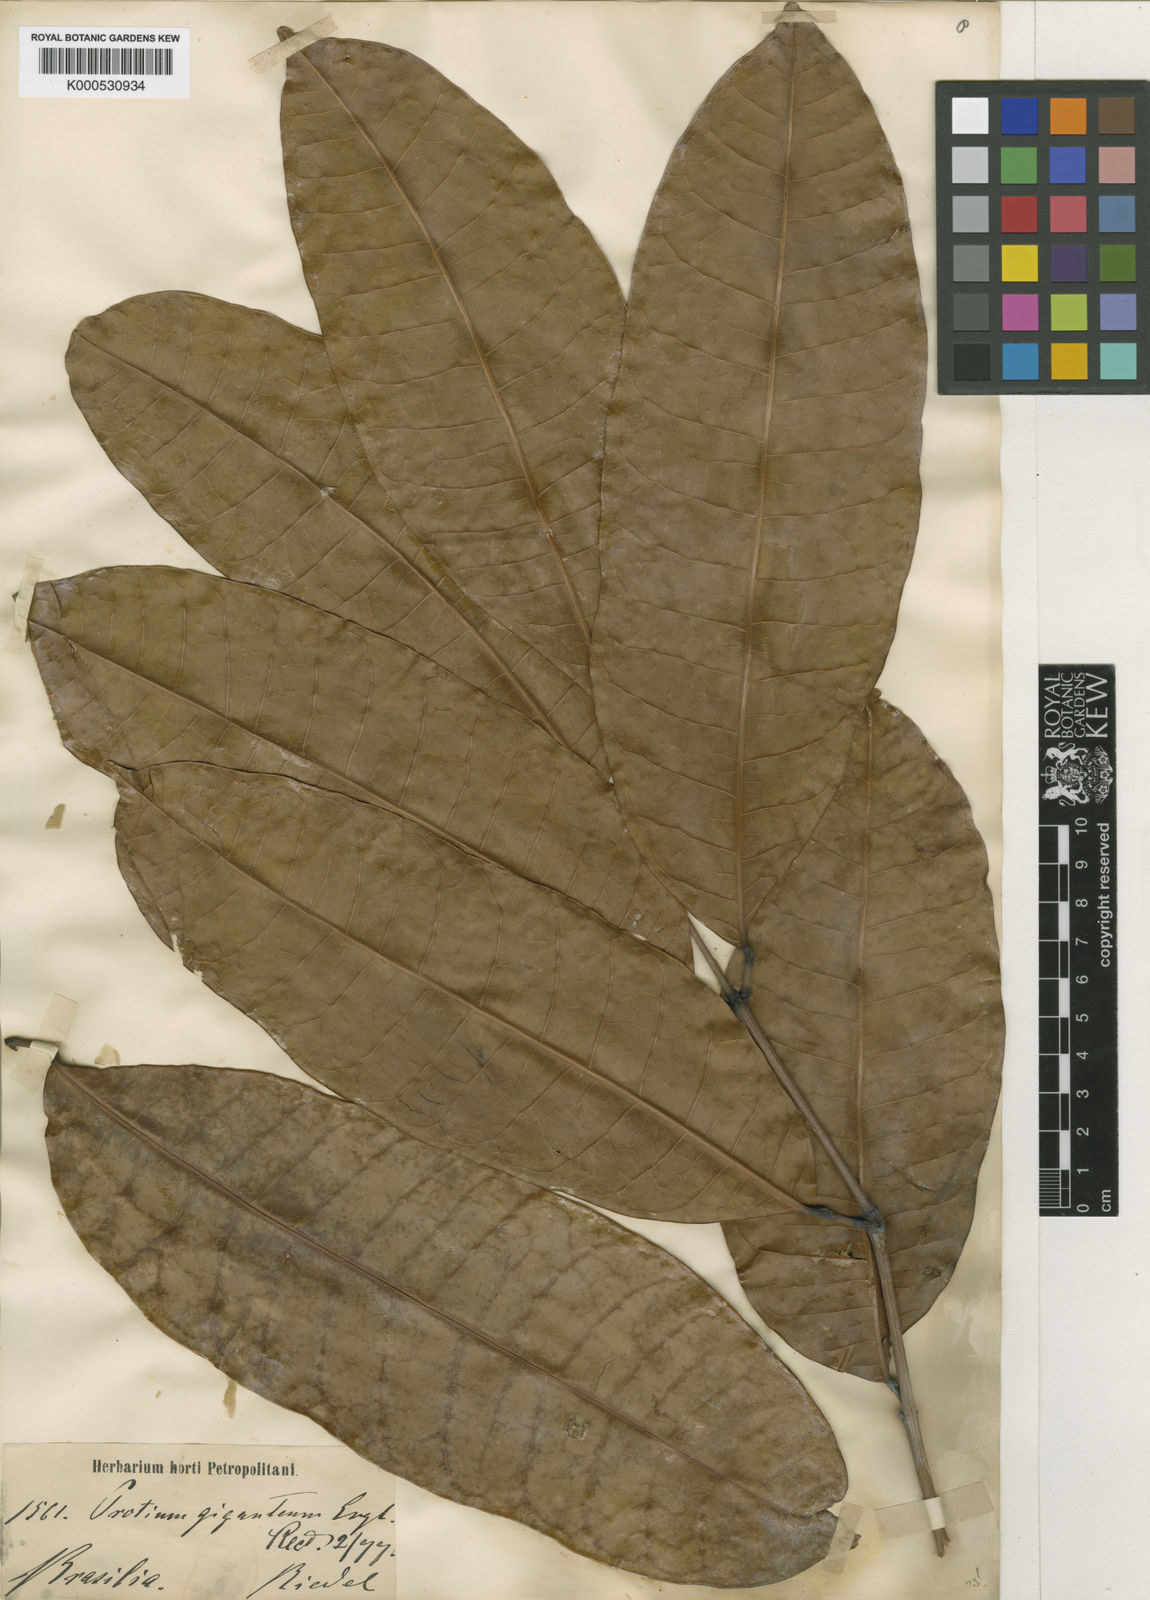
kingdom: Plantae
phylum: Tracheophyta
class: Magnoliopsida
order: Sapindales
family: Burseraceae
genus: Protium
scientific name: Protium giganteum
